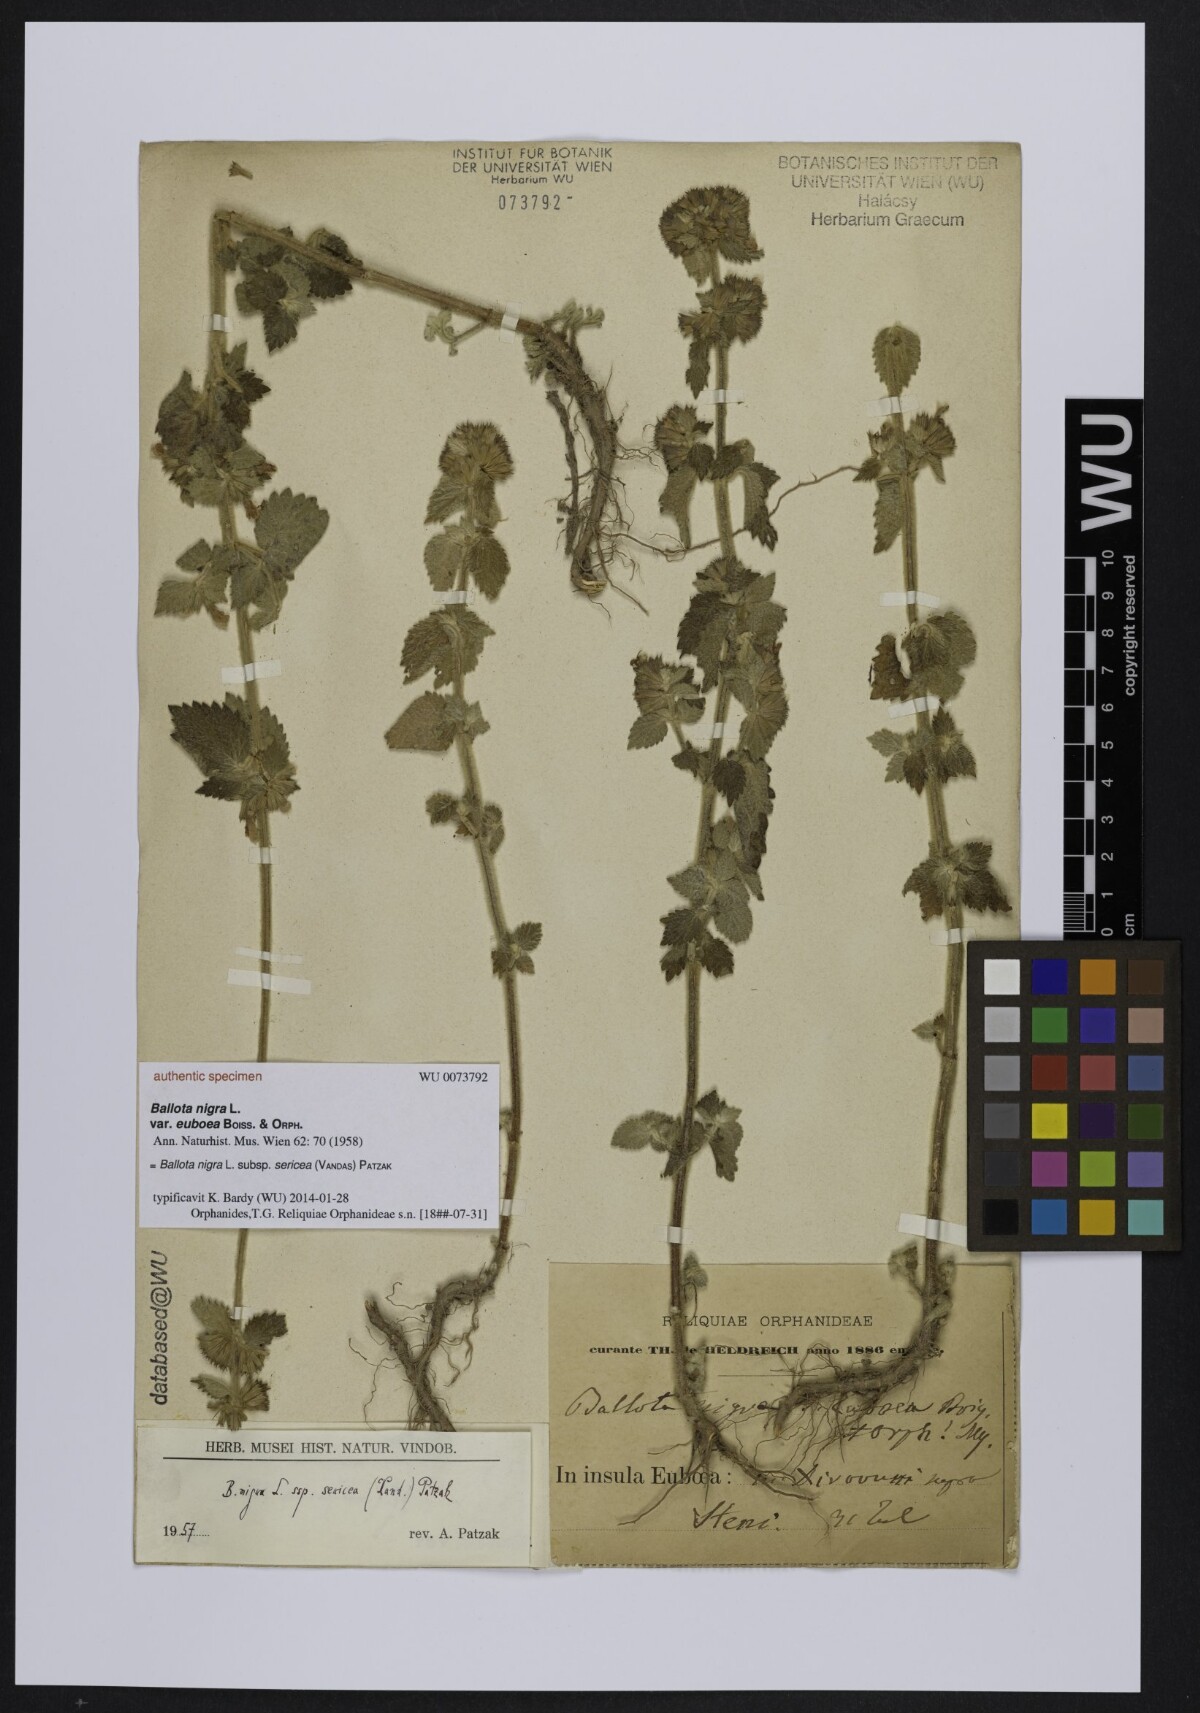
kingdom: Plantae
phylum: Tracheophyta
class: Magnoliopsida
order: Lamiales
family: Lamiaceae
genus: Ballota
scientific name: Ballota nigra
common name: Black horehound
